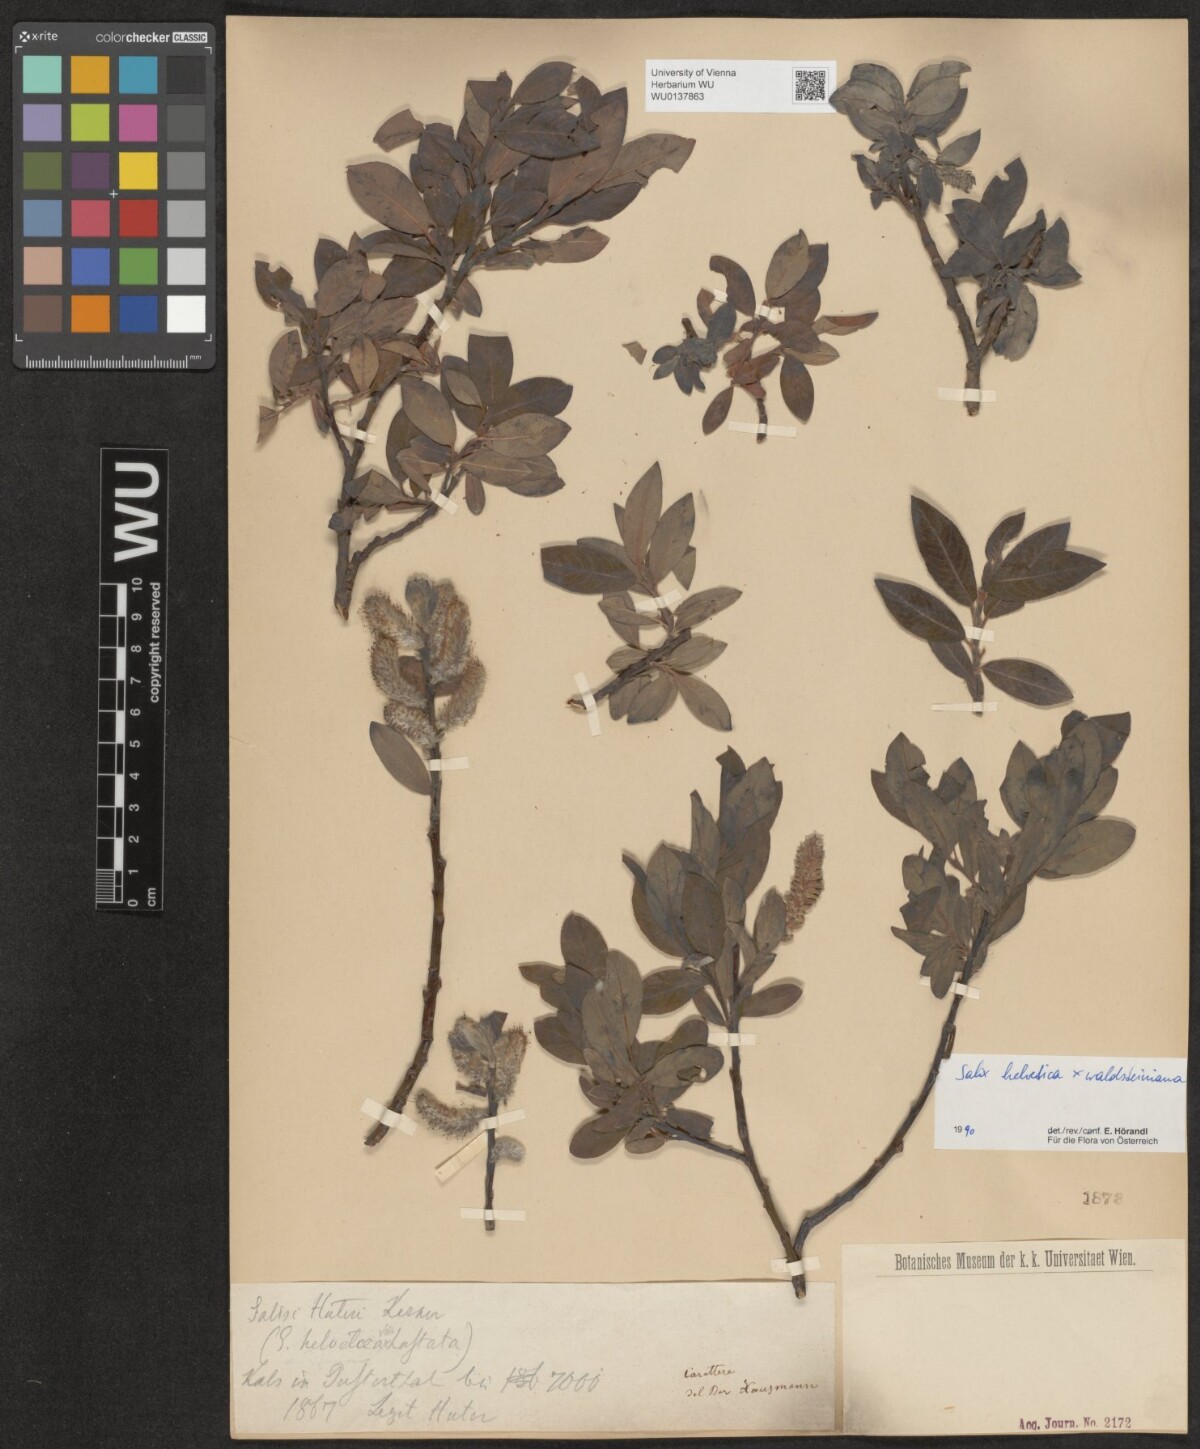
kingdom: Plantae
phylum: Tracheophyta
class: Magnoliopsida
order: Malpighiales
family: Salicaceae
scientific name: Salicaceae
